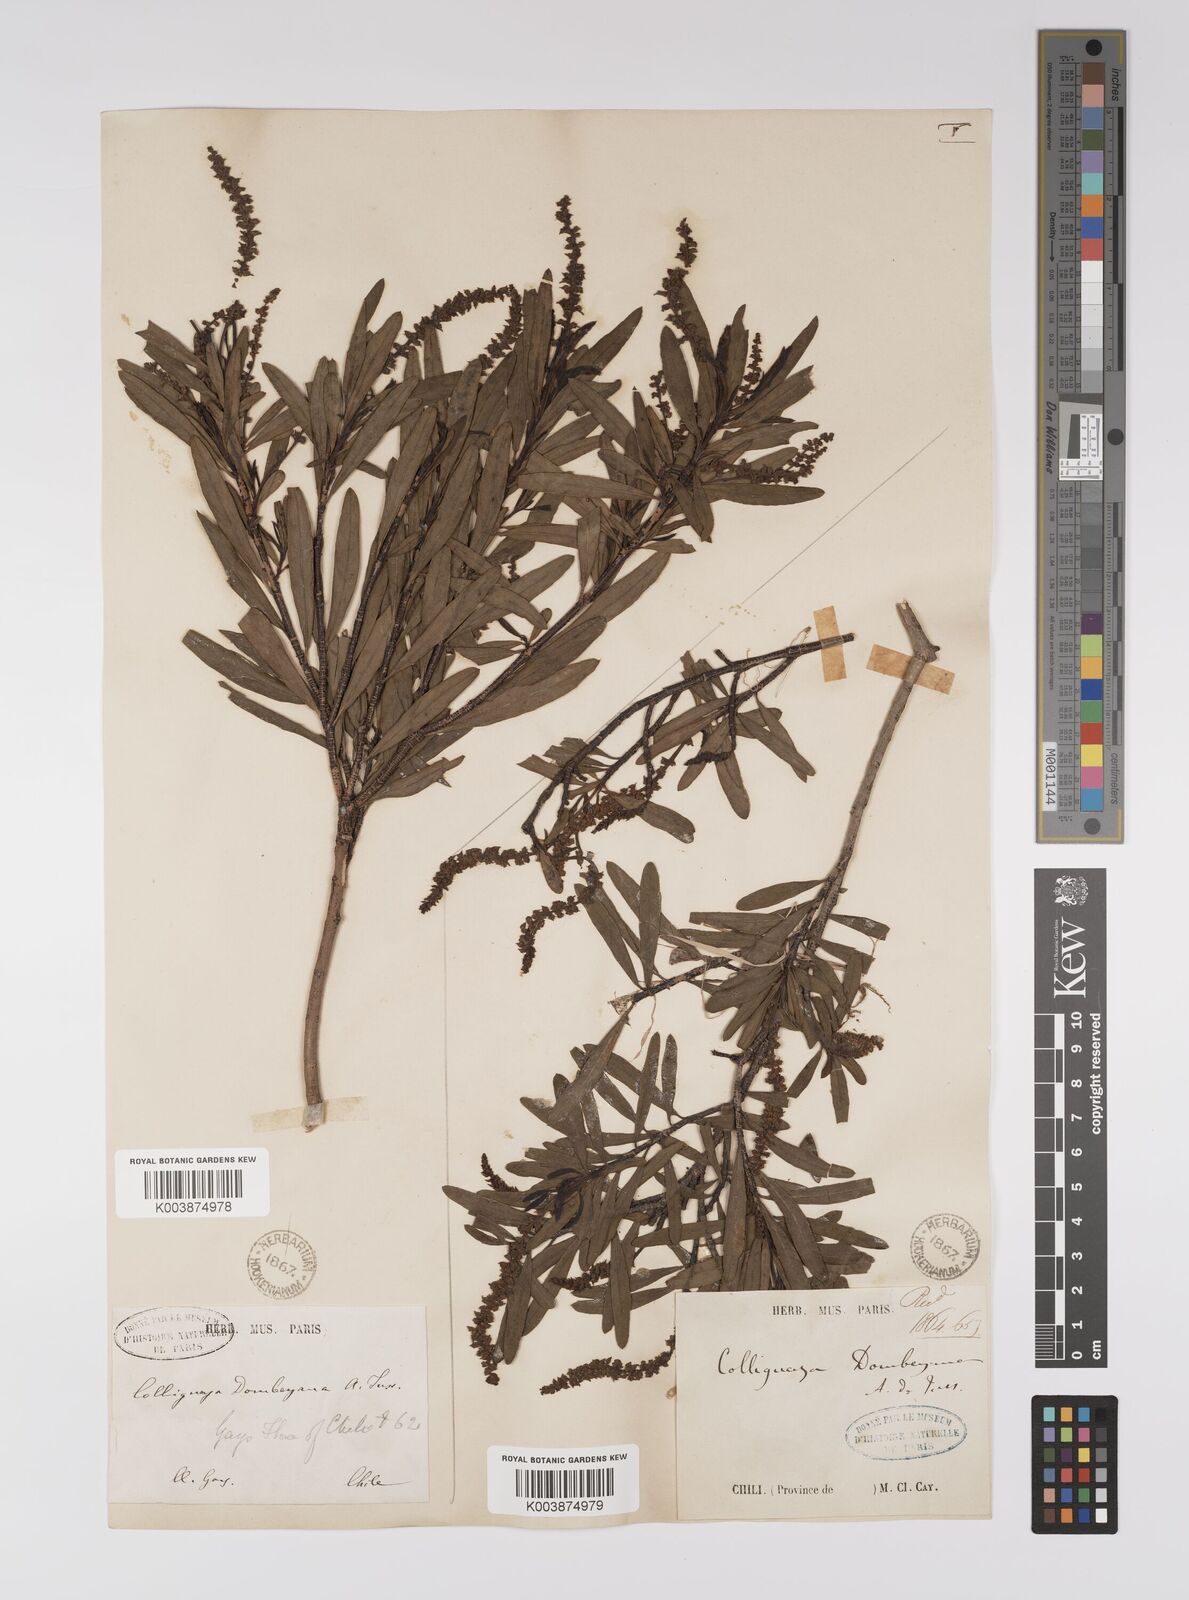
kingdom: Plantae
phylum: Tracheophyta
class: Magnoliopsida
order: Malpighiales
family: Euphorbiaceae
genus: Colliguaja
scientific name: Colliguaja dombeyana
